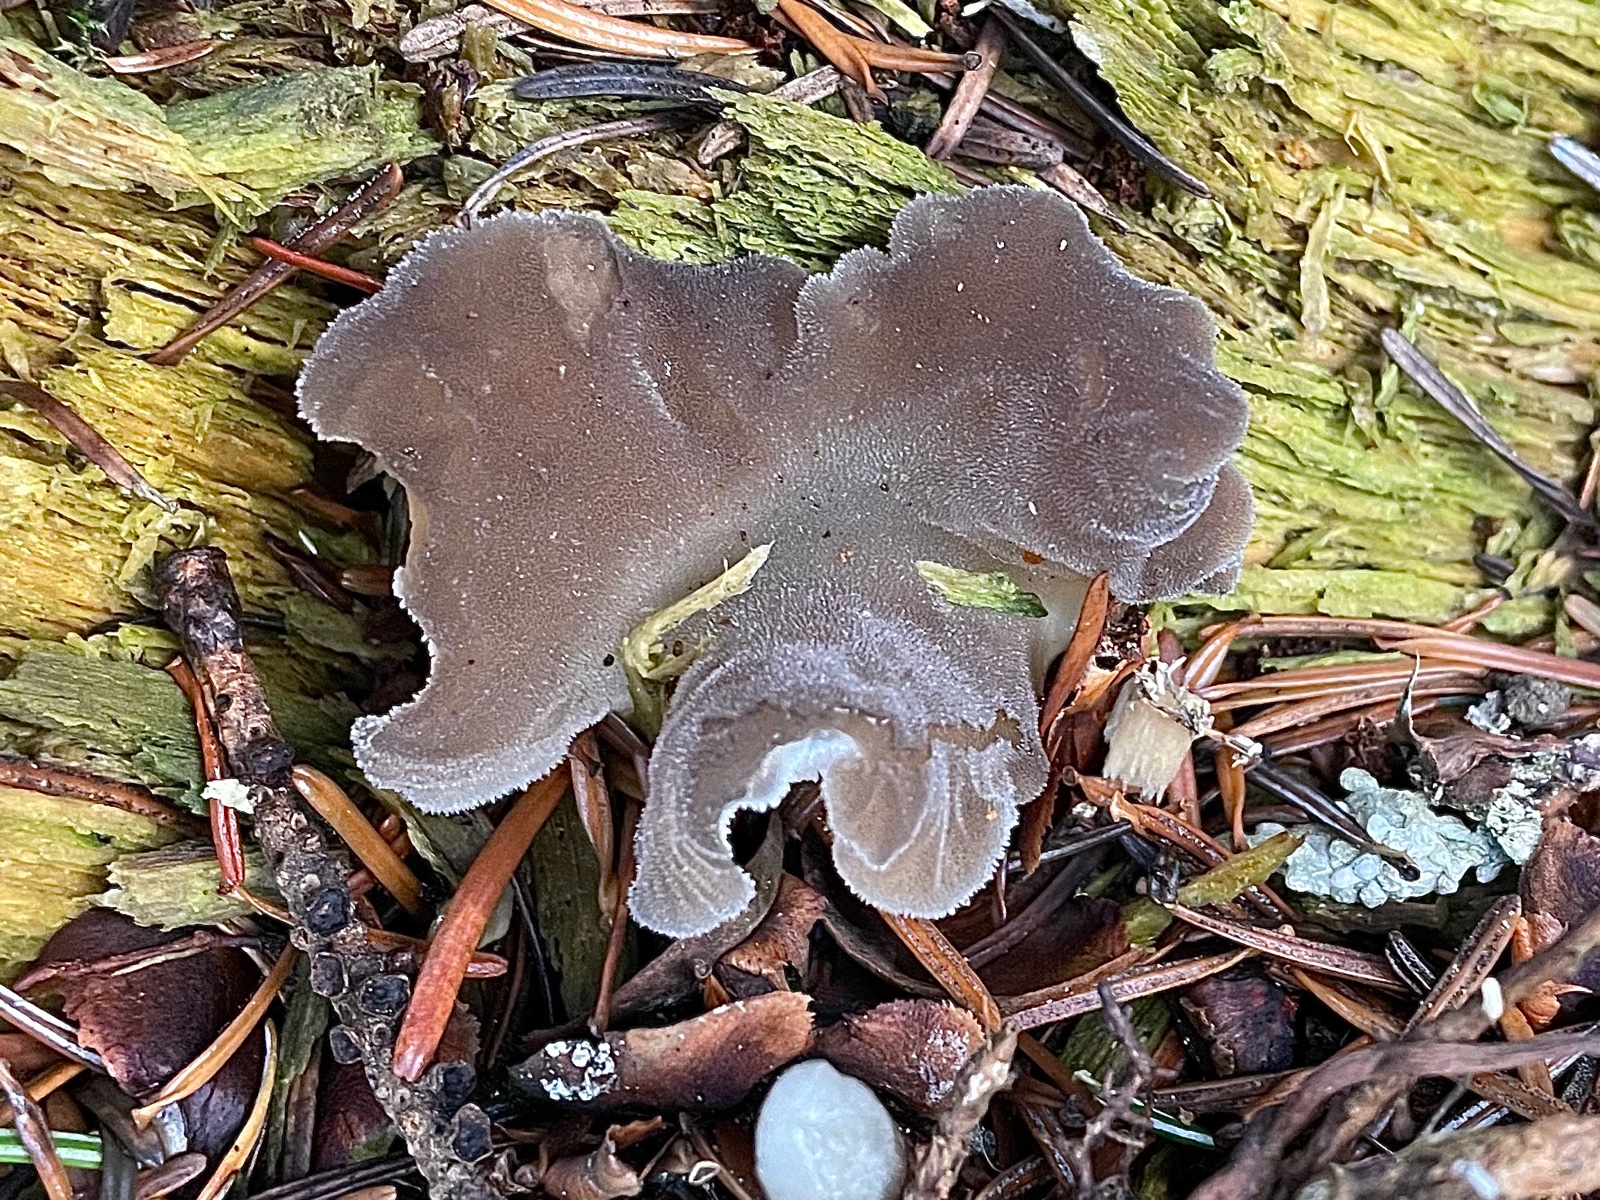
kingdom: Fungi
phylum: Basidiomycota
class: Agaricomycetes
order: Auriculariales
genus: Pseudohydnum
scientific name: Pseudohydnum gelatinosum
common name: bævretand
